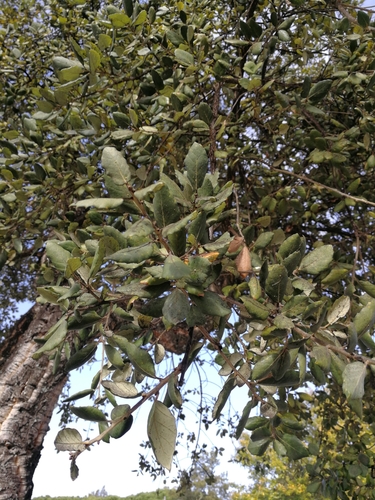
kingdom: Plantae
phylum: Tracheophyta
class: Magnoliopsida
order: Fagales
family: Fagaceae
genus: Quercus
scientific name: Quercus suber
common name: Cork oak
